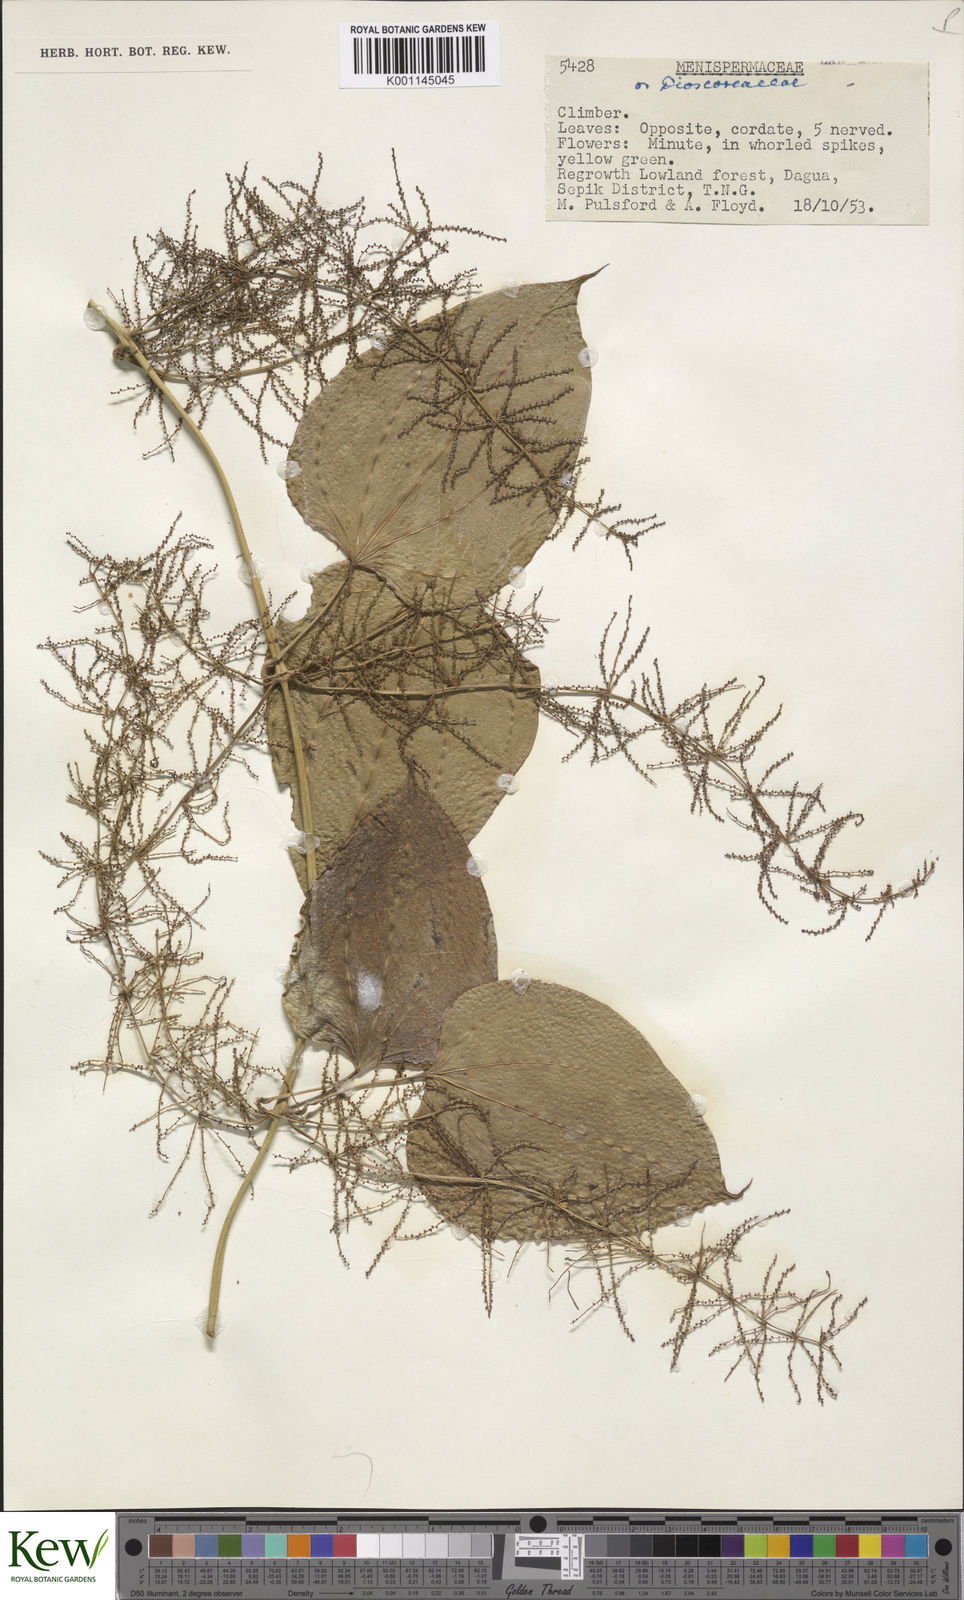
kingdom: Plantae
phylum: Tracheophyta
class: Liliopsida
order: Dioscoreales
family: Dioscoreaceae
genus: Dioscorea
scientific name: Dioscorea
